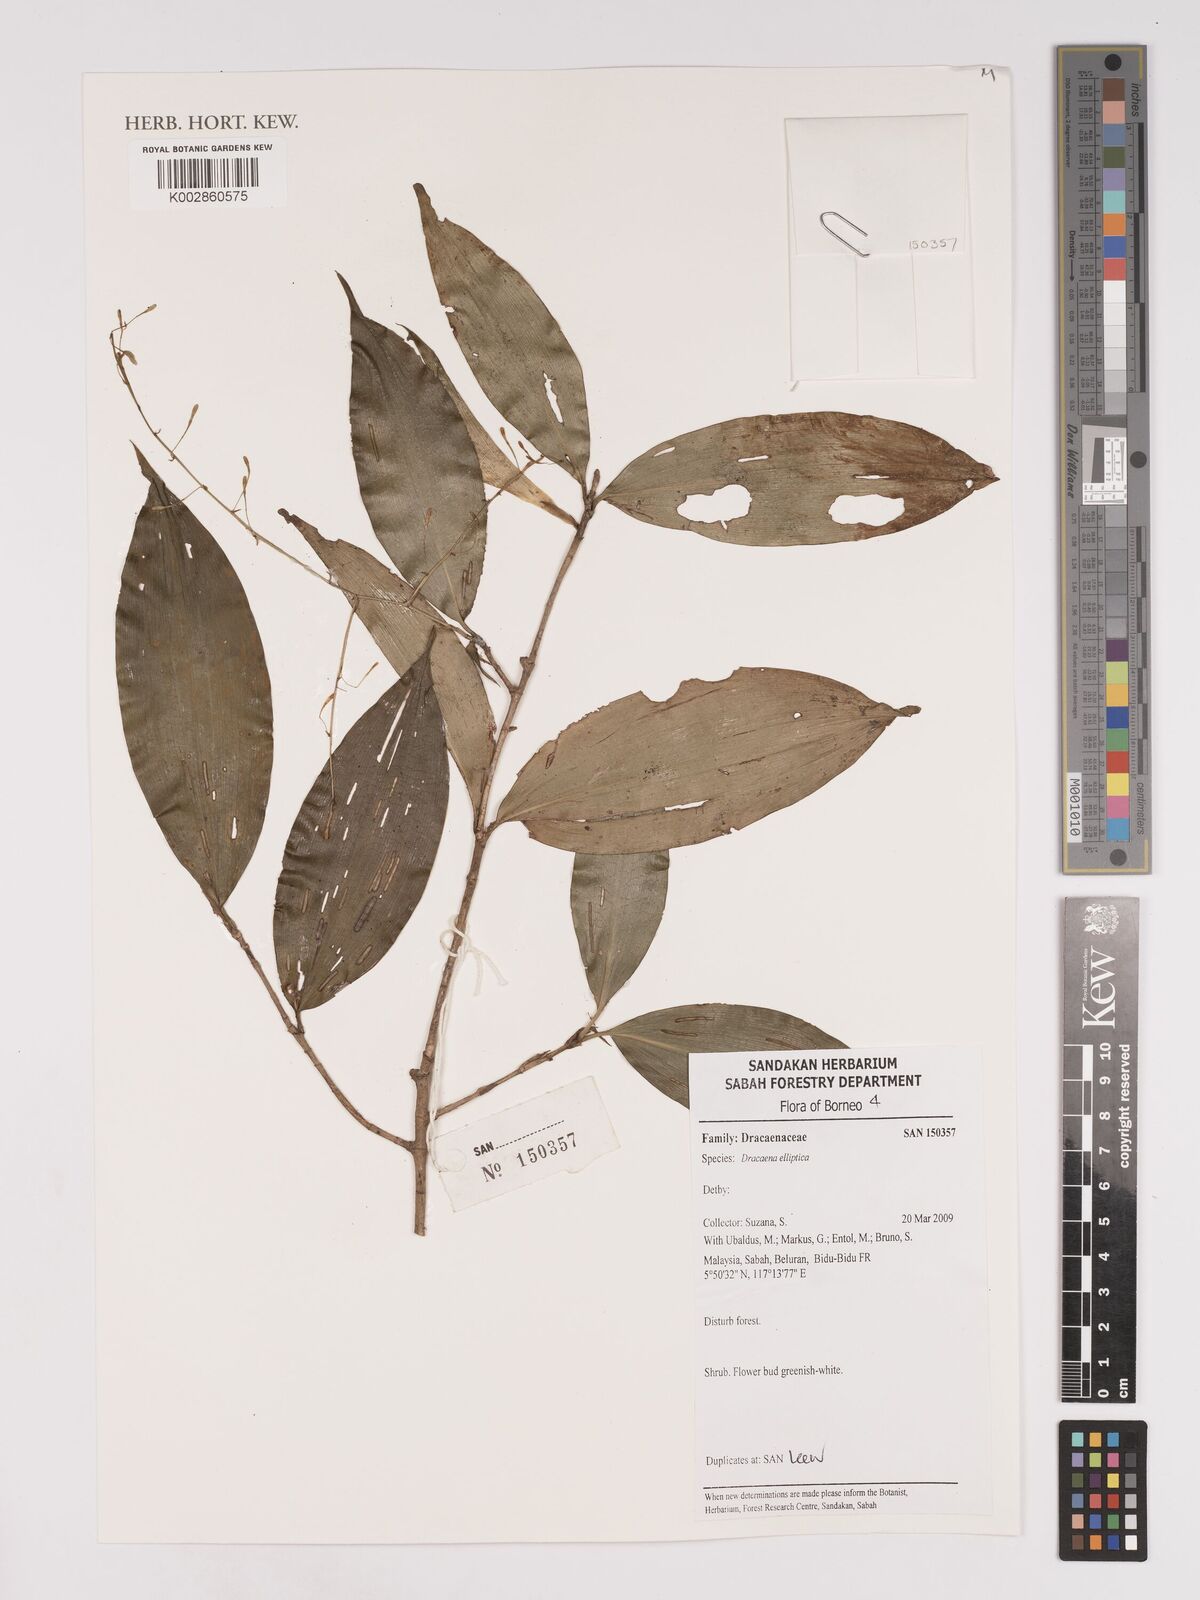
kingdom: Plantae
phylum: Tracheophyta
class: Liliopsida
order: Asparagales
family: Asparagaceae
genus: Dracaena
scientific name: Dracaena elliptica
